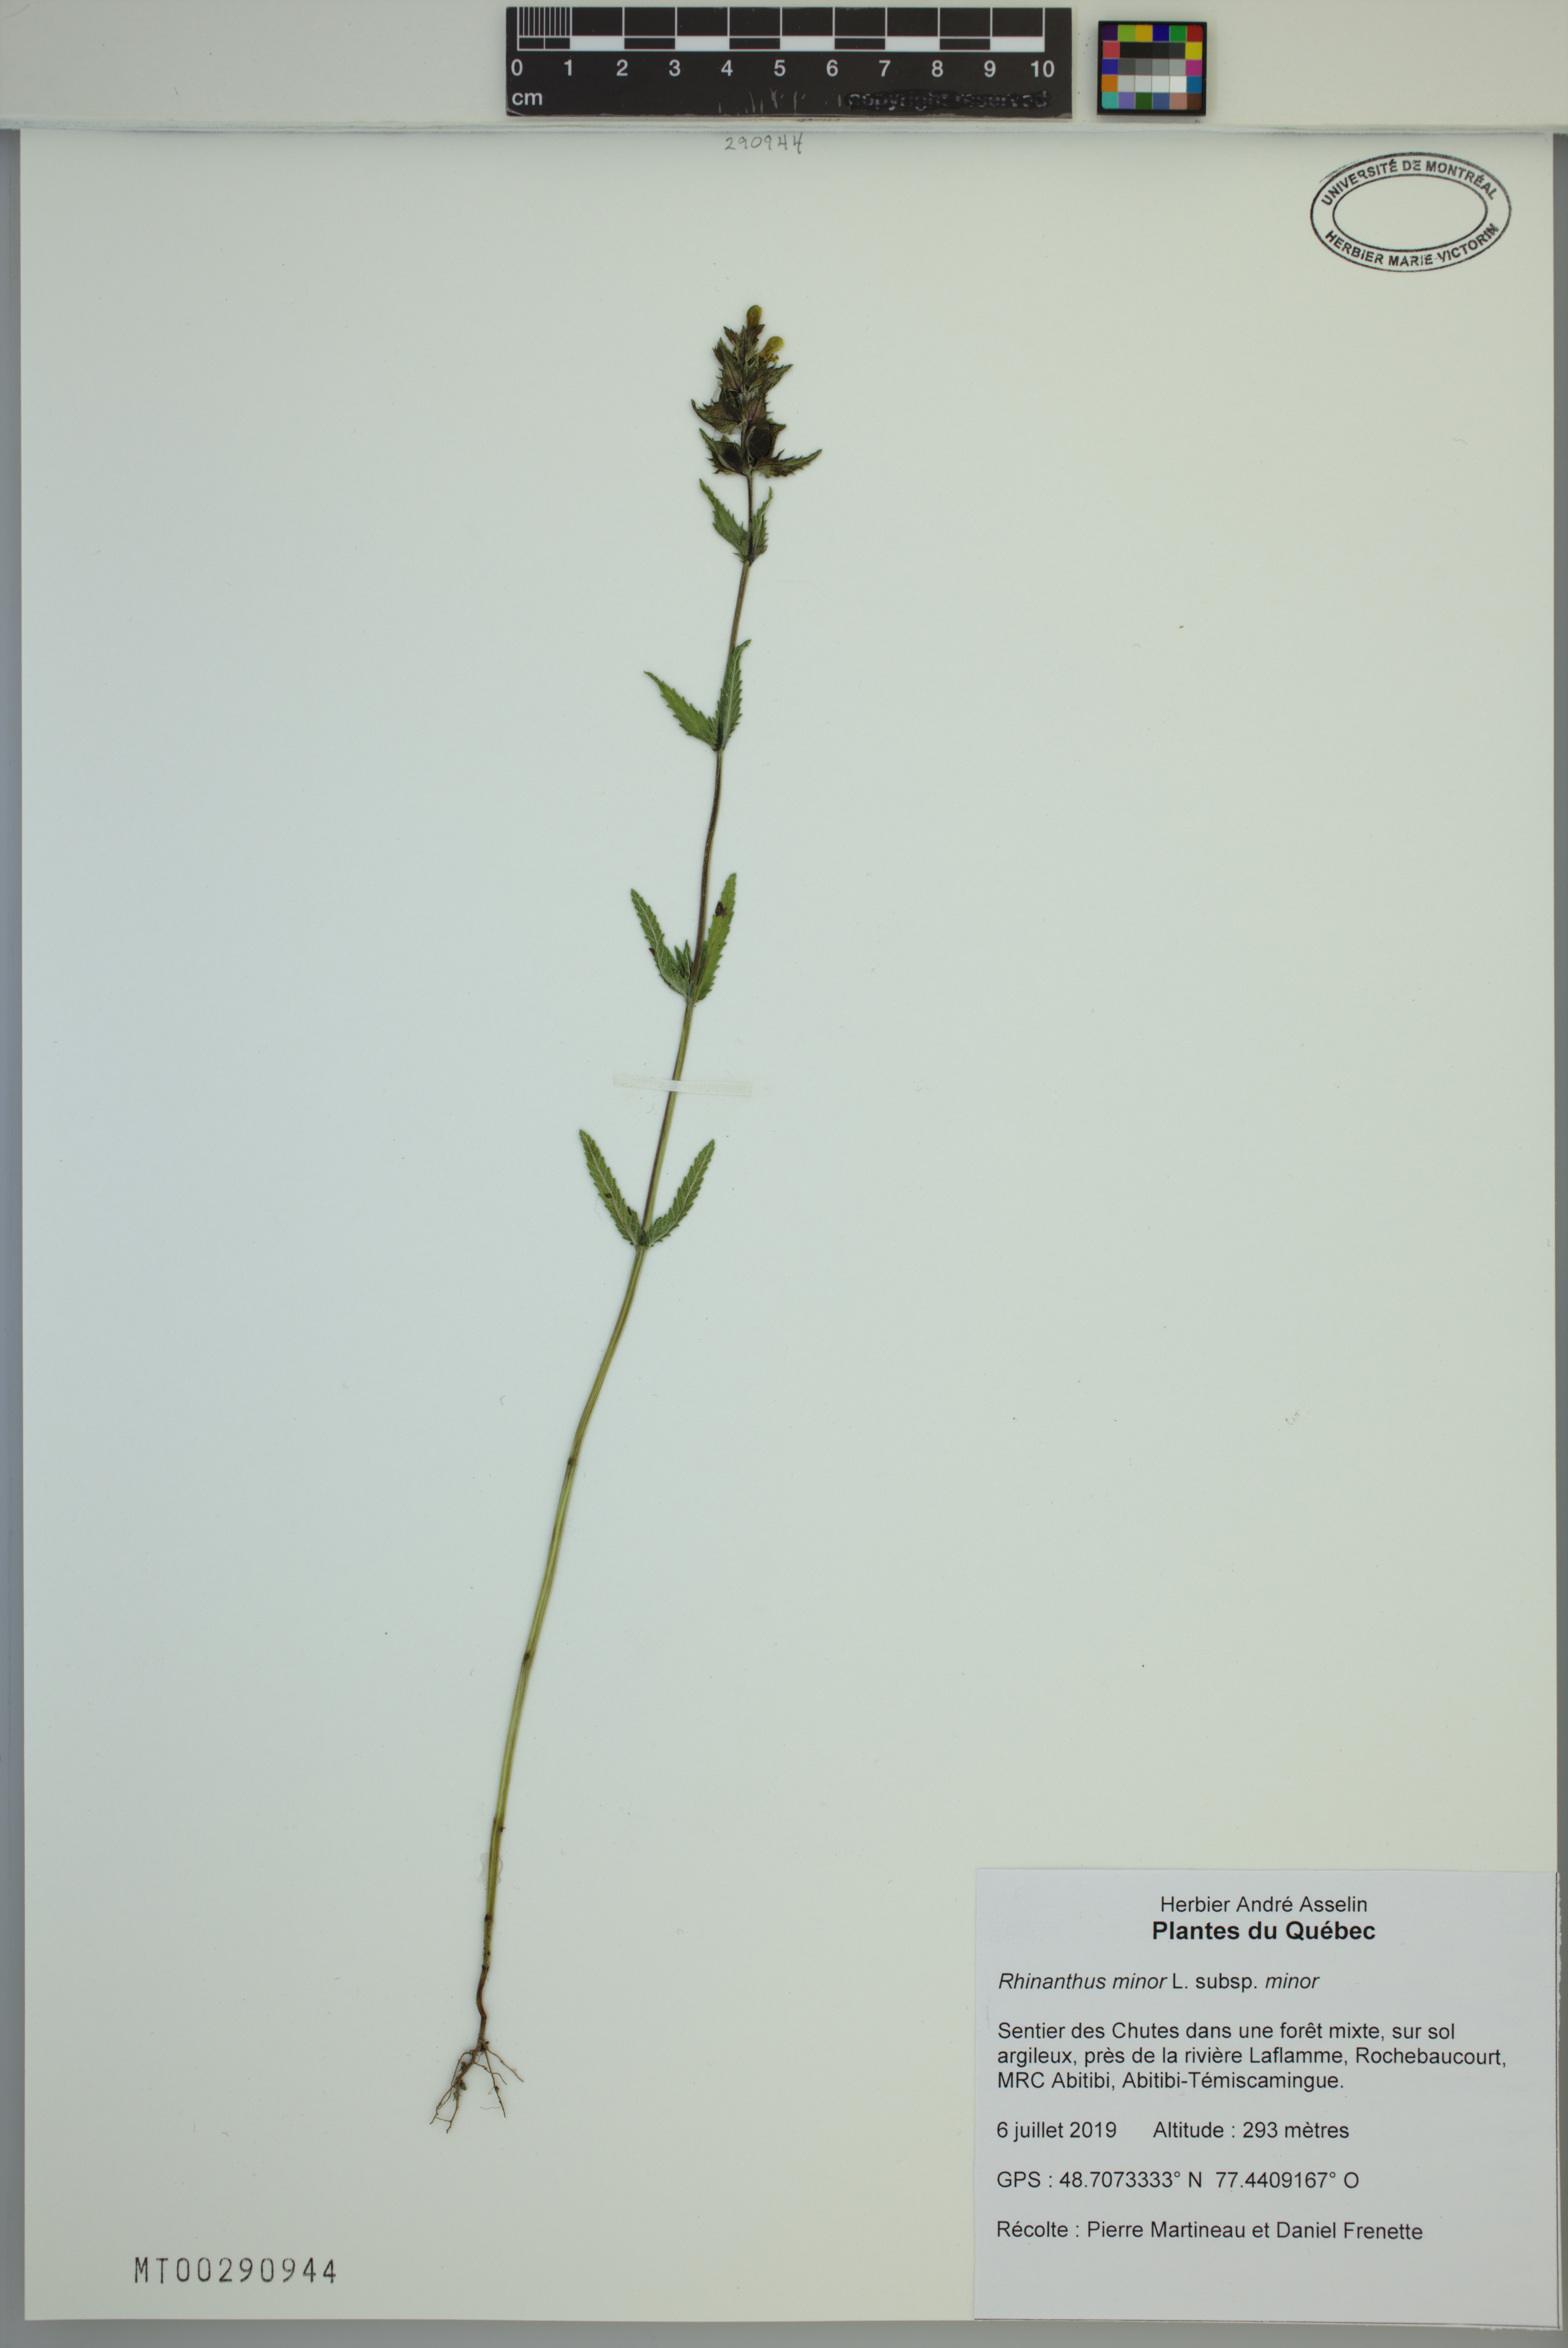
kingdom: Plantae
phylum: Tracheophyta
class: Magnoliopsida
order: Lamiales
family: Orobanchaceae
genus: Rhinanthus
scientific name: Rhinanthus minor
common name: Yellow-rattle
